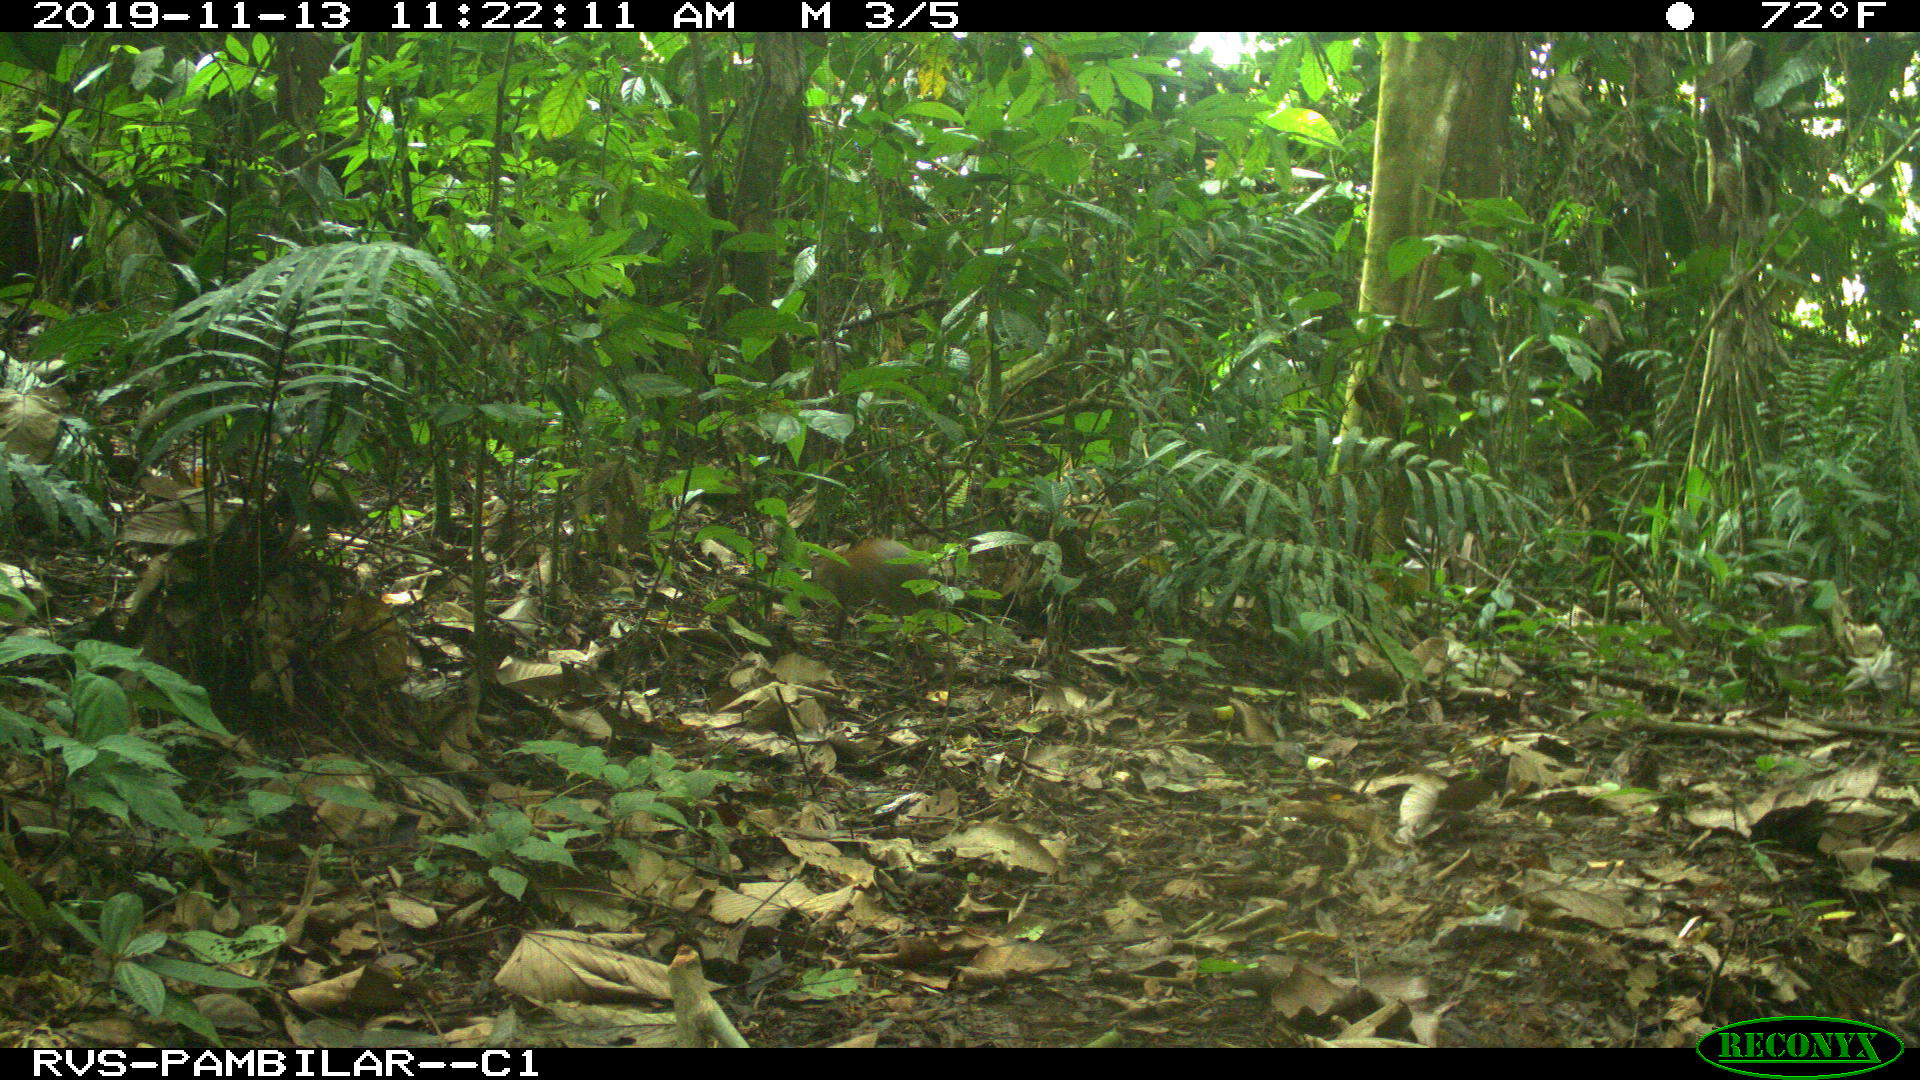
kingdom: Animalia
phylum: Chordata
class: Mammalia
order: Rodentia
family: Dasyproctidae
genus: Dasyprocta
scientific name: Dasyprocta punctata
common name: Central american agouti
